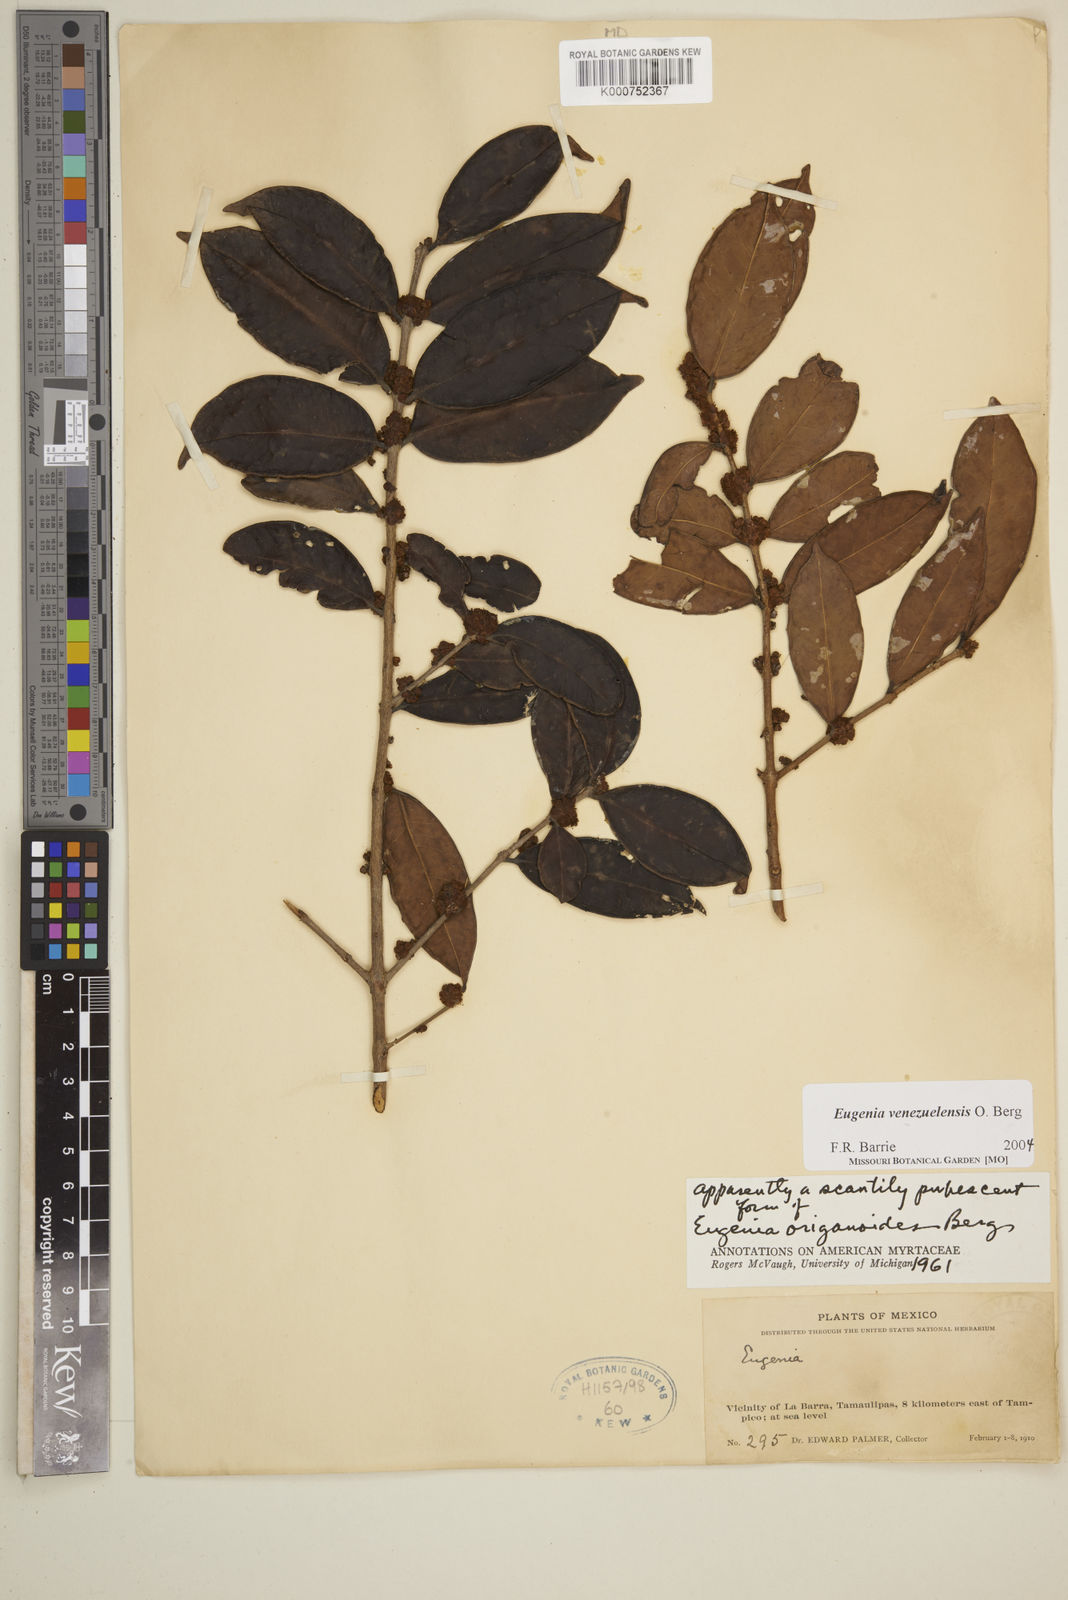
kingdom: Plantae
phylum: Tracheophyta
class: Magnoliopsida
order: Myrtales
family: Myrtaceae
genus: Eugenia
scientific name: Eugenia venezuelensis
